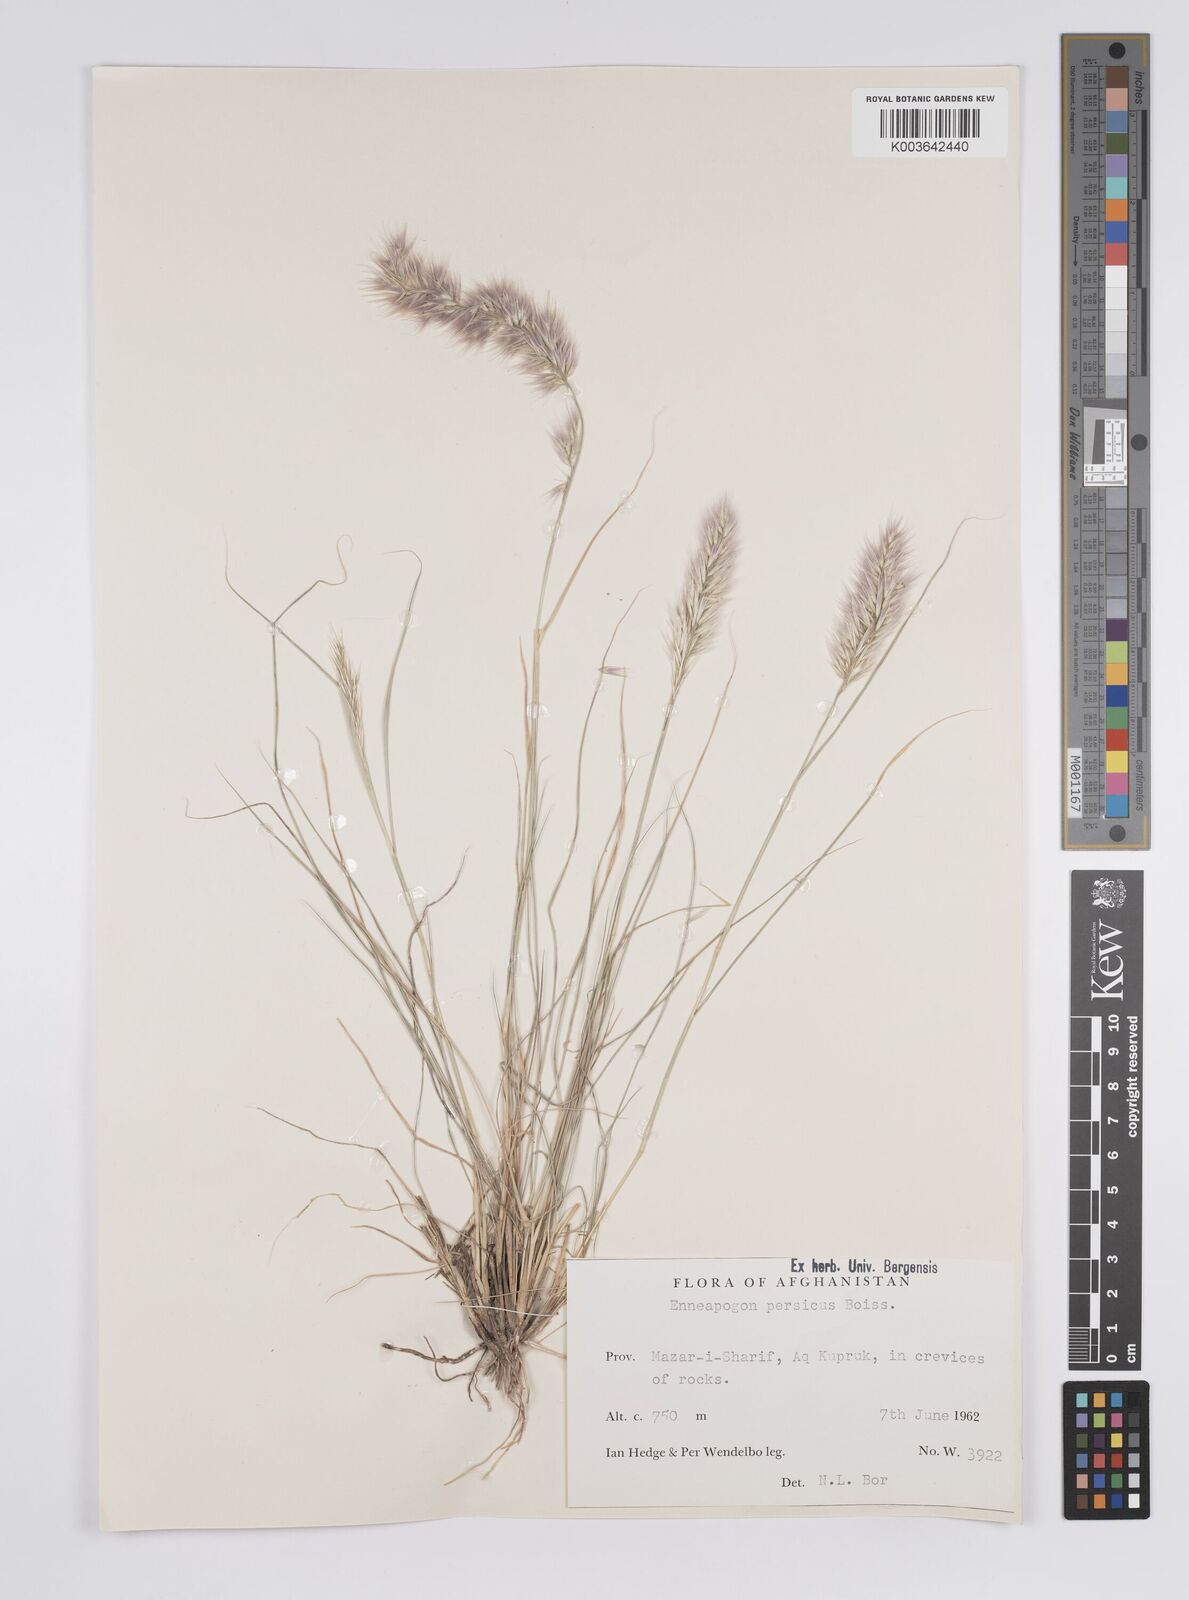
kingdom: Plantae
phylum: Tracheophyta
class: Liliopsida
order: Poales
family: Poaceae
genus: Enneapogon
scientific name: Enneapogon persicus
